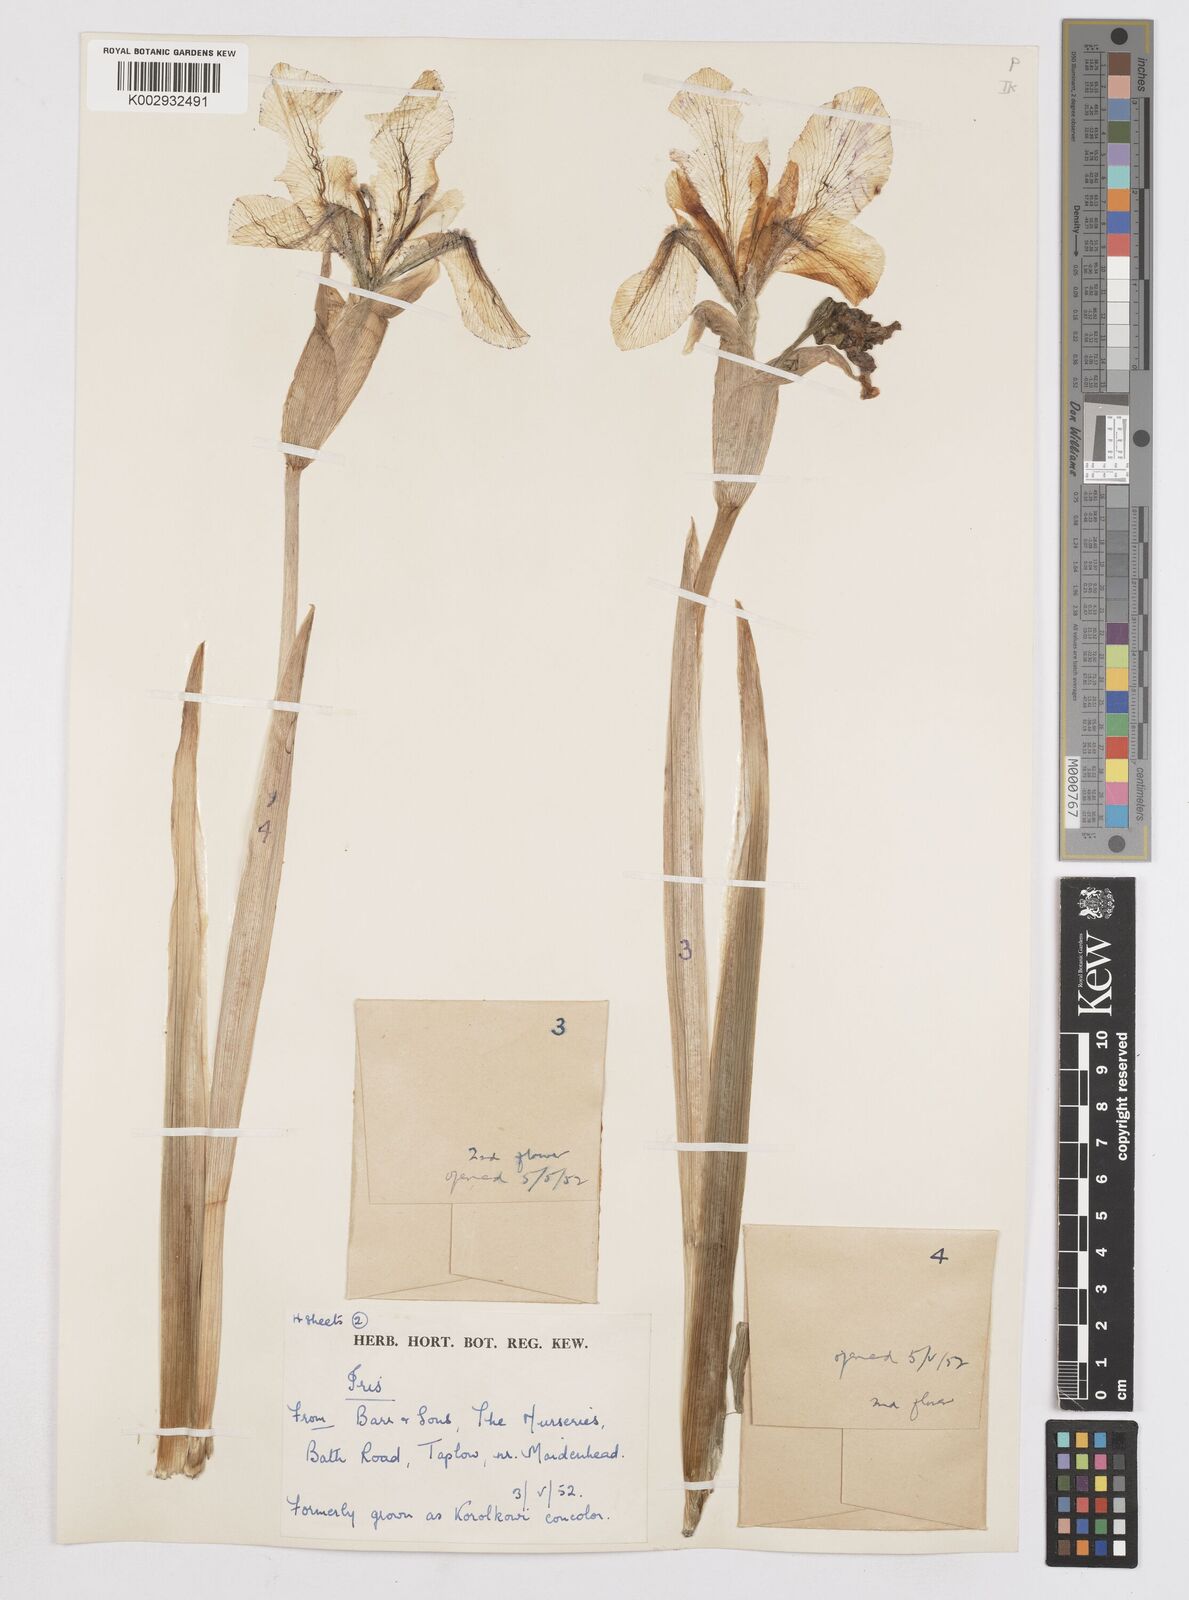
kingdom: Plantae
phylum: Tracheophyta
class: Liliopsida
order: Asparagales
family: Iridaceae
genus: Iris
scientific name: Iris
